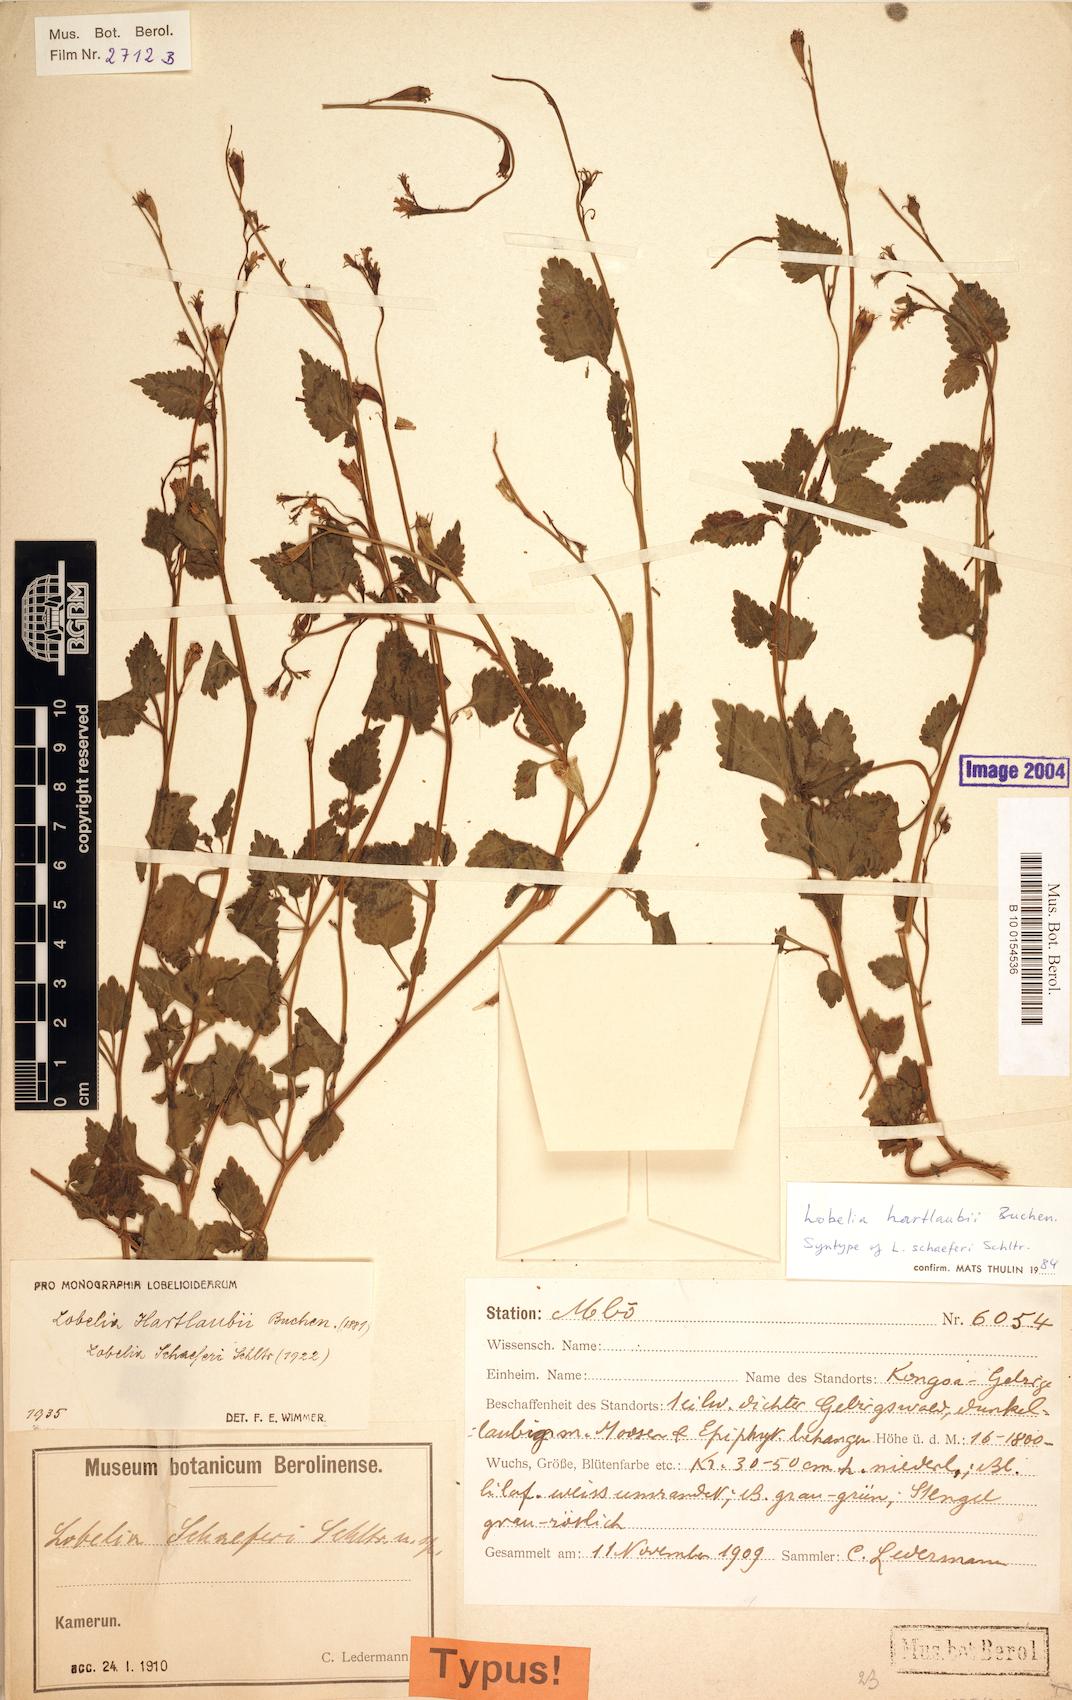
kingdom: Plantae
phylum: Tracheophyta
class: Magnoliopsida
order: Asterales
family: Campanulaceae
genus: Lobelia
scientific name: Lobelia hartlaubii
